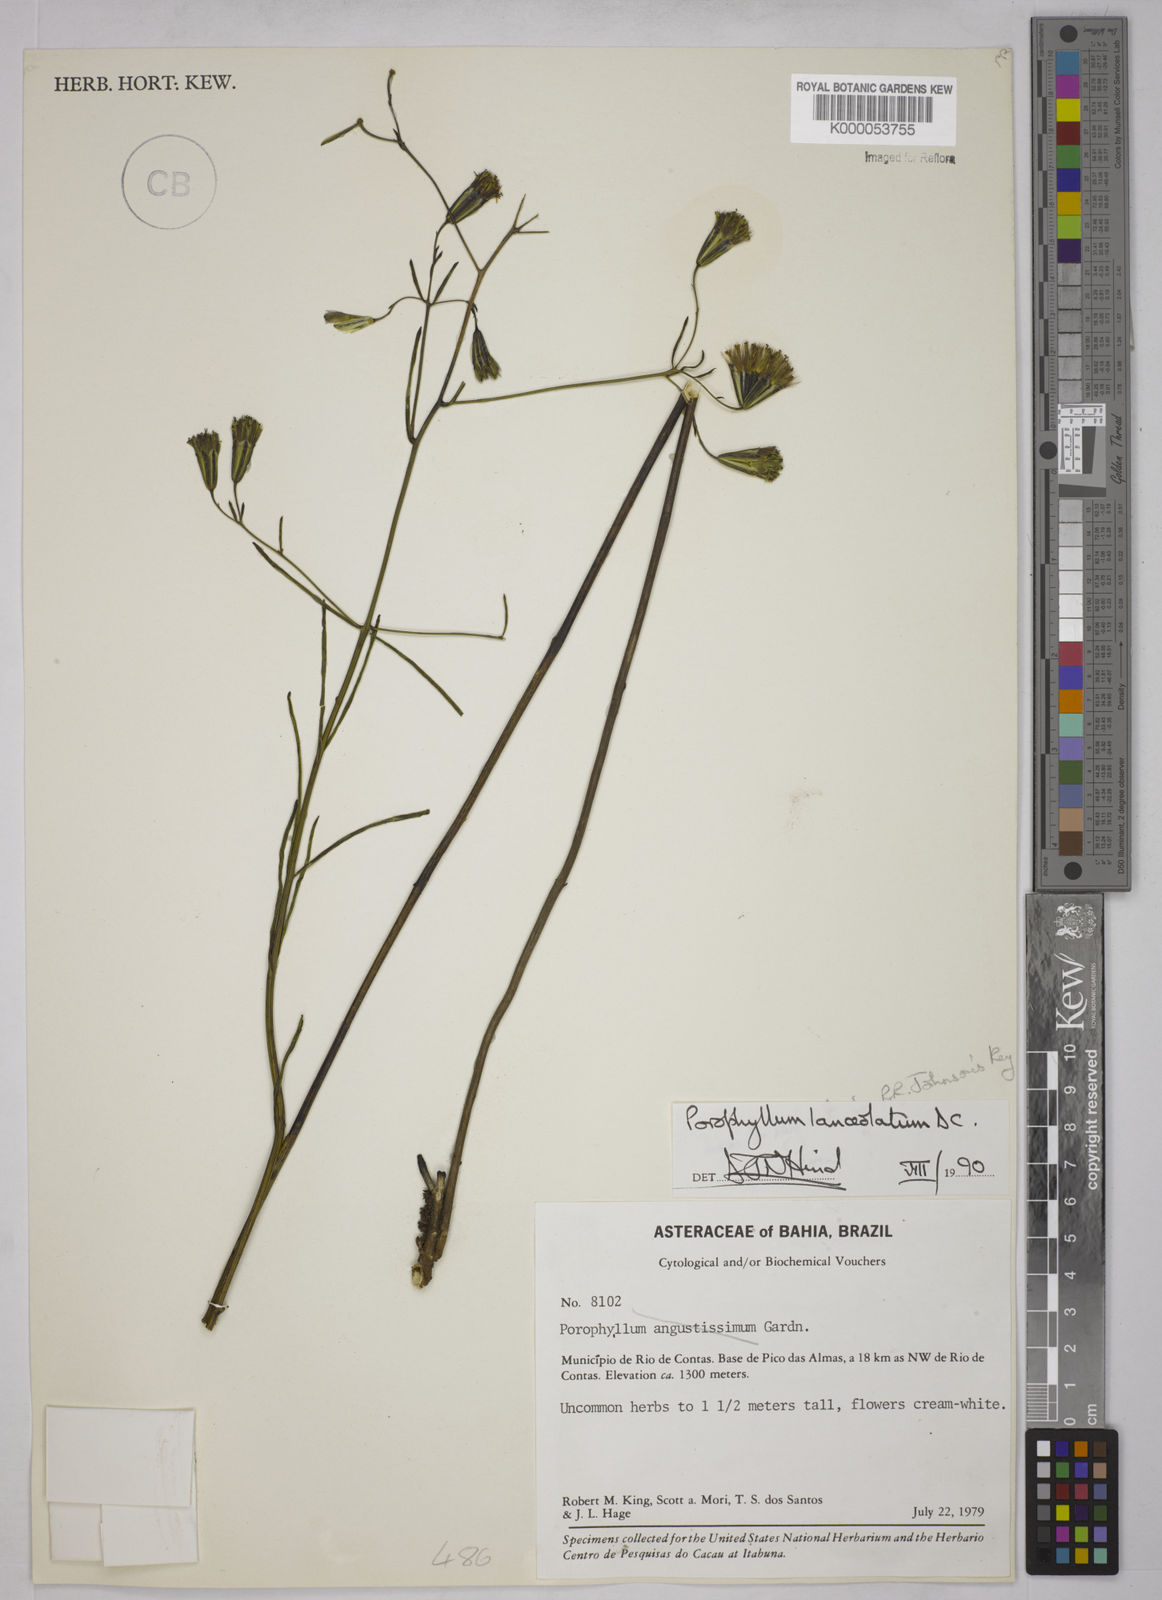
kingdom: Plantae
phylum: Tracheophyta
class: Magnoliopsida
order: Asterales
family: Asteraceae
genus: Porophyllum
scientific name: Porophyllum angustissimum
